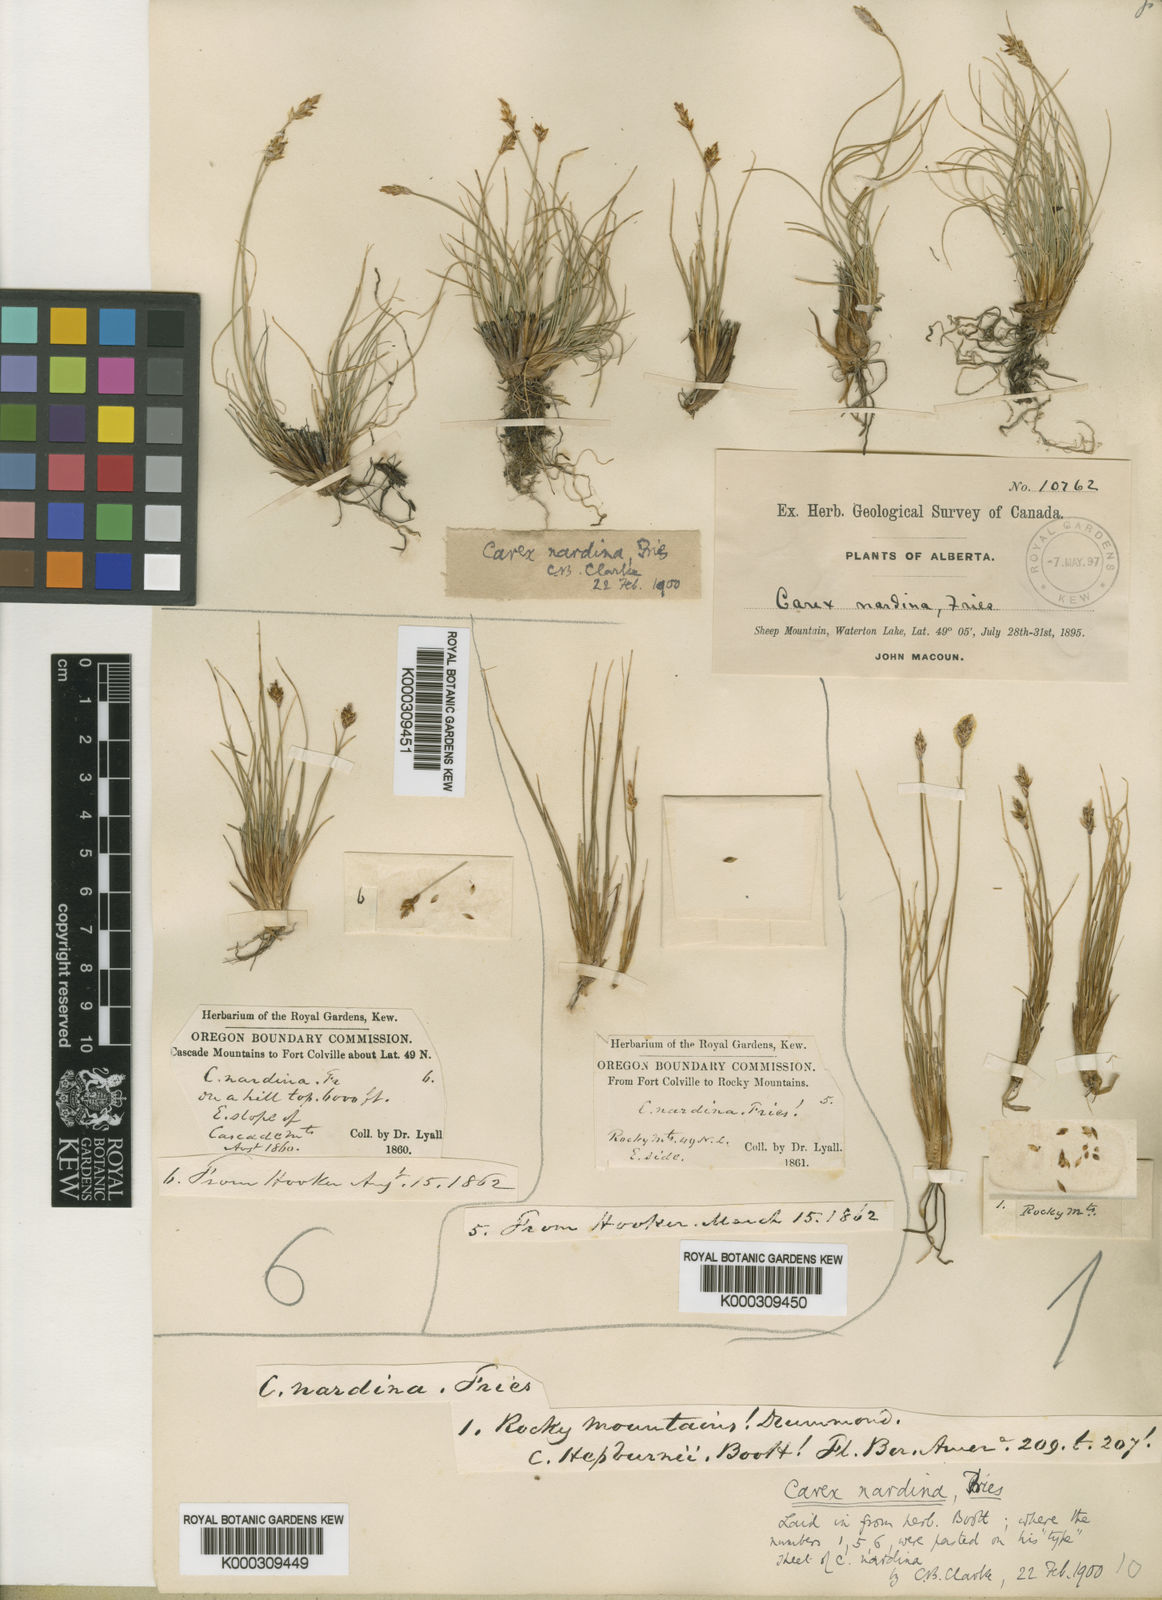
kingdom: Plantae
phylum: Tracheophyta
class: Liliopsida
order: Poales
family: Cyperaceae
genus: Carex
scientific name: Carex nardina
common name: Nard sedge
